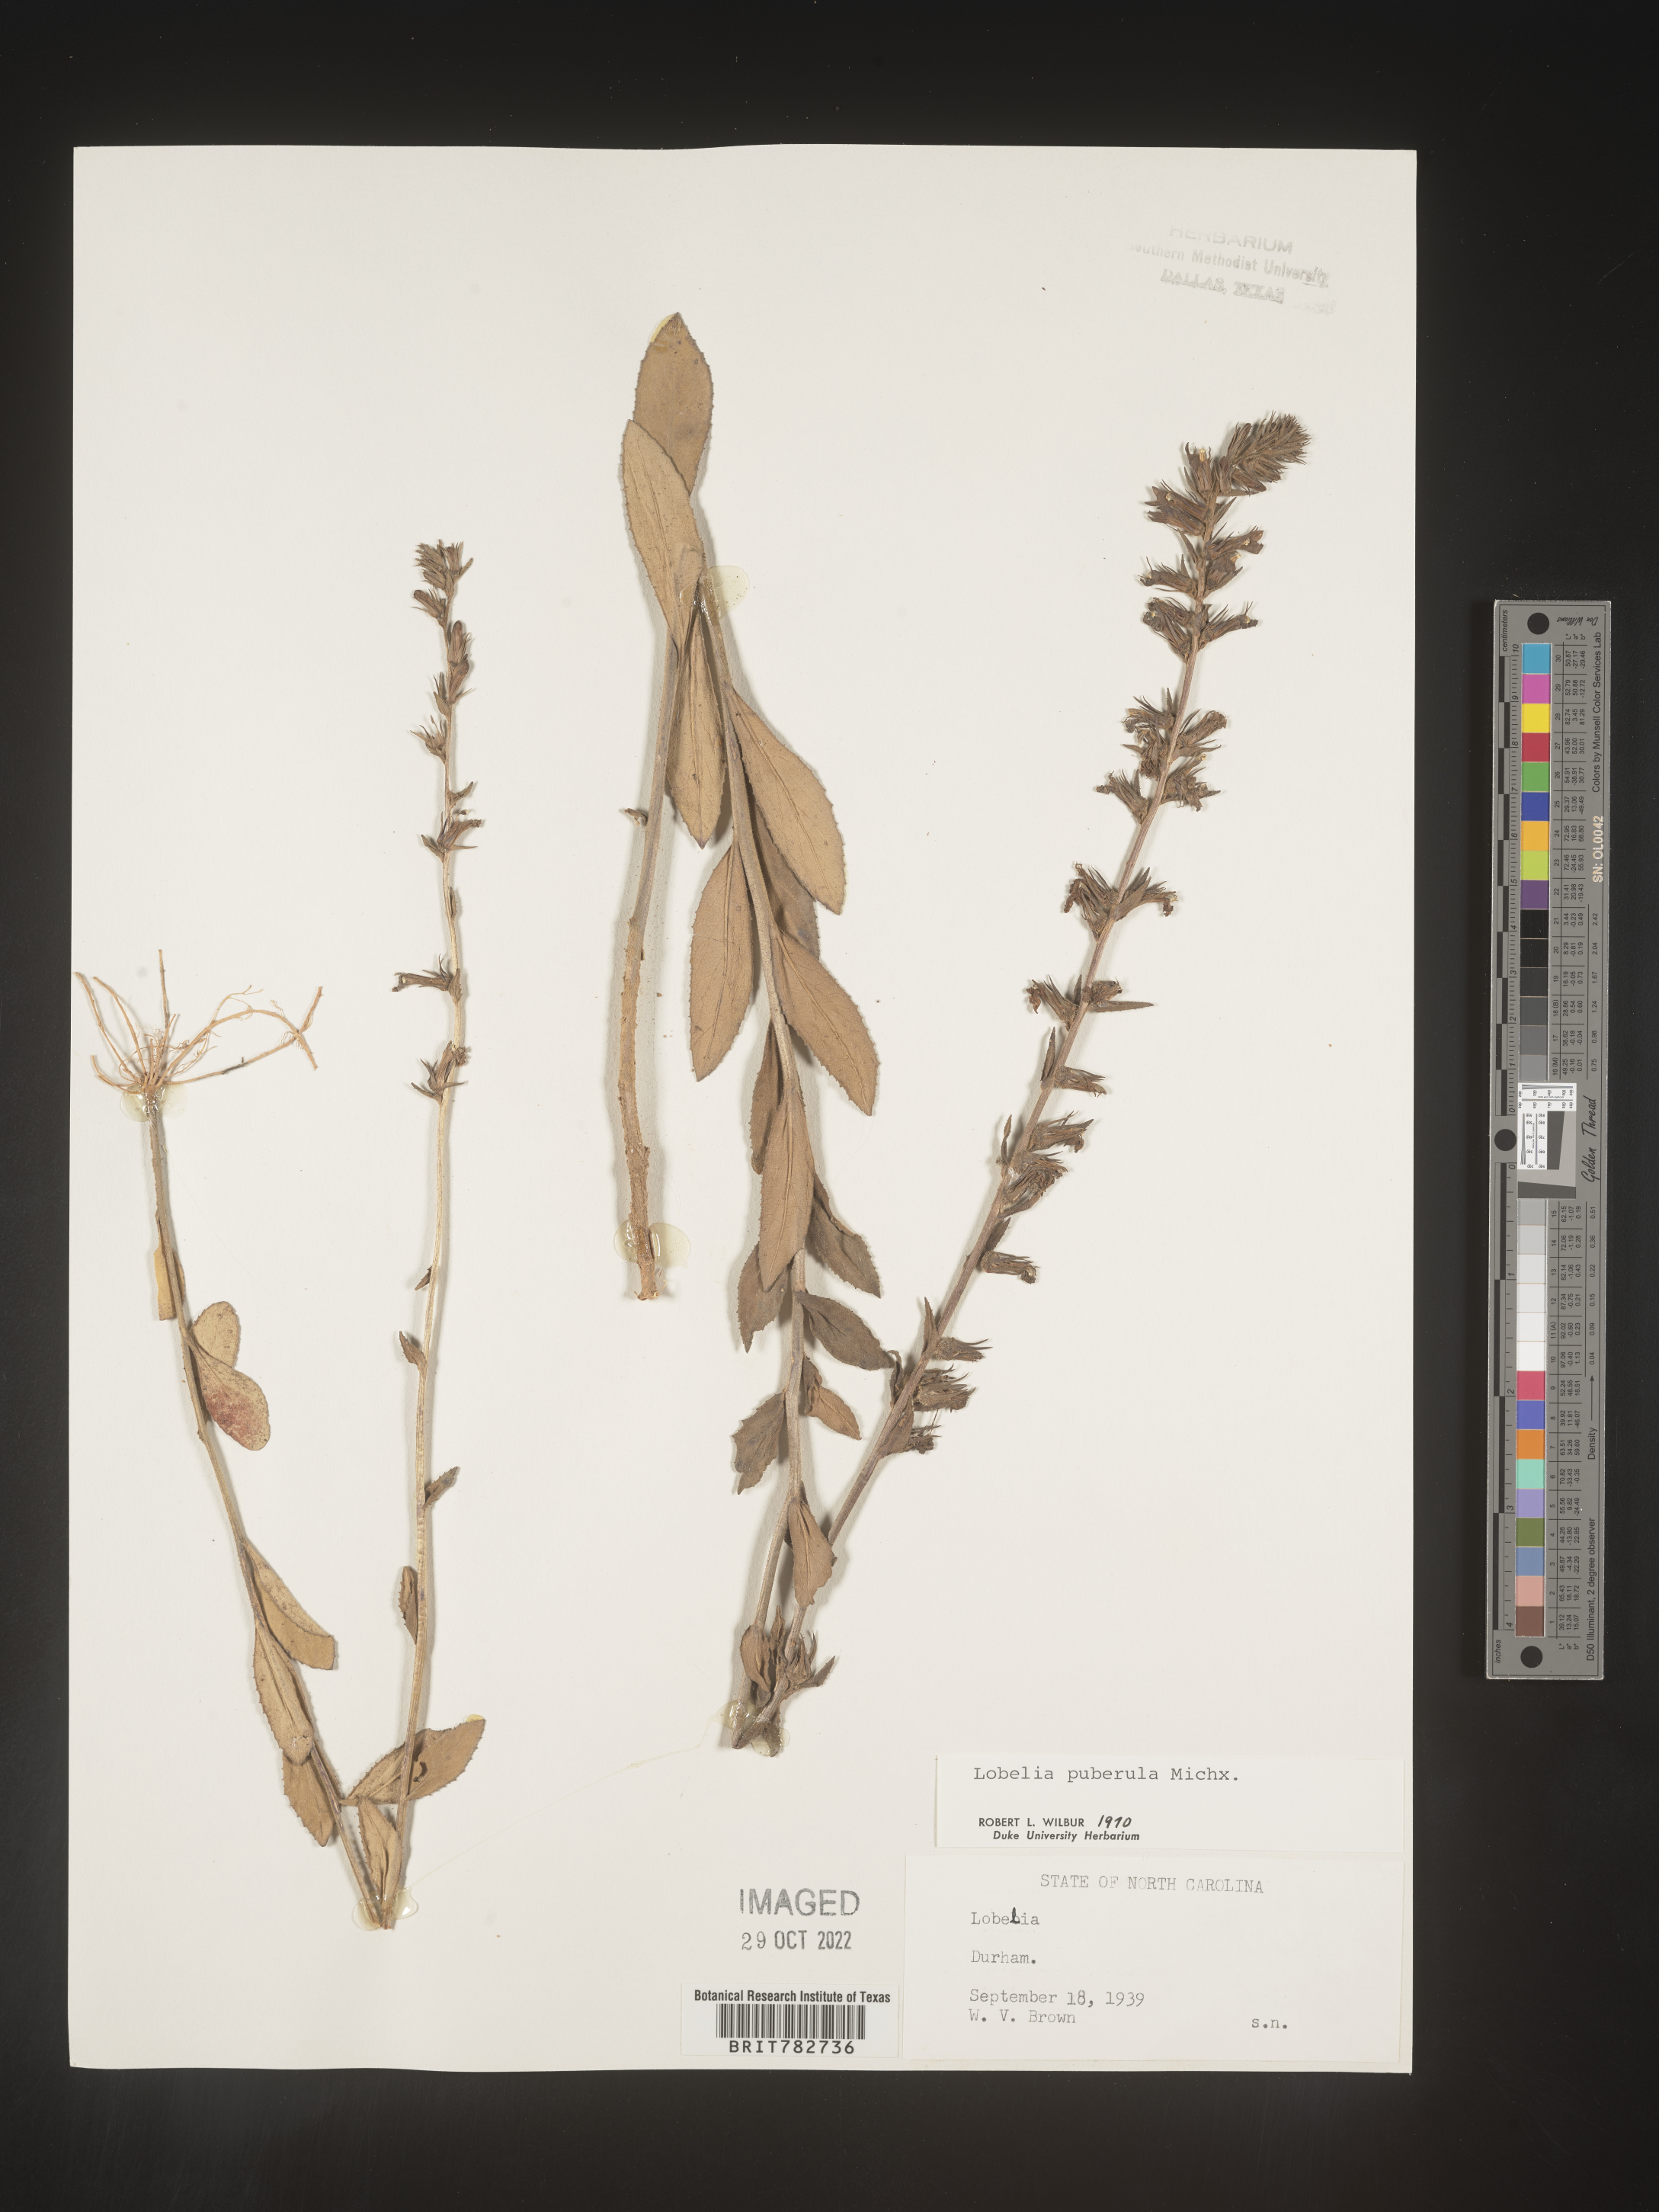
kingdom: Plantae
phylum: Tracheophyta
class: Magnoliopsida
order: Asterales
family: Campanulaceae
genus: Lobelia
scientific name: Lobelia puberula
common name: Purple dewdrop
